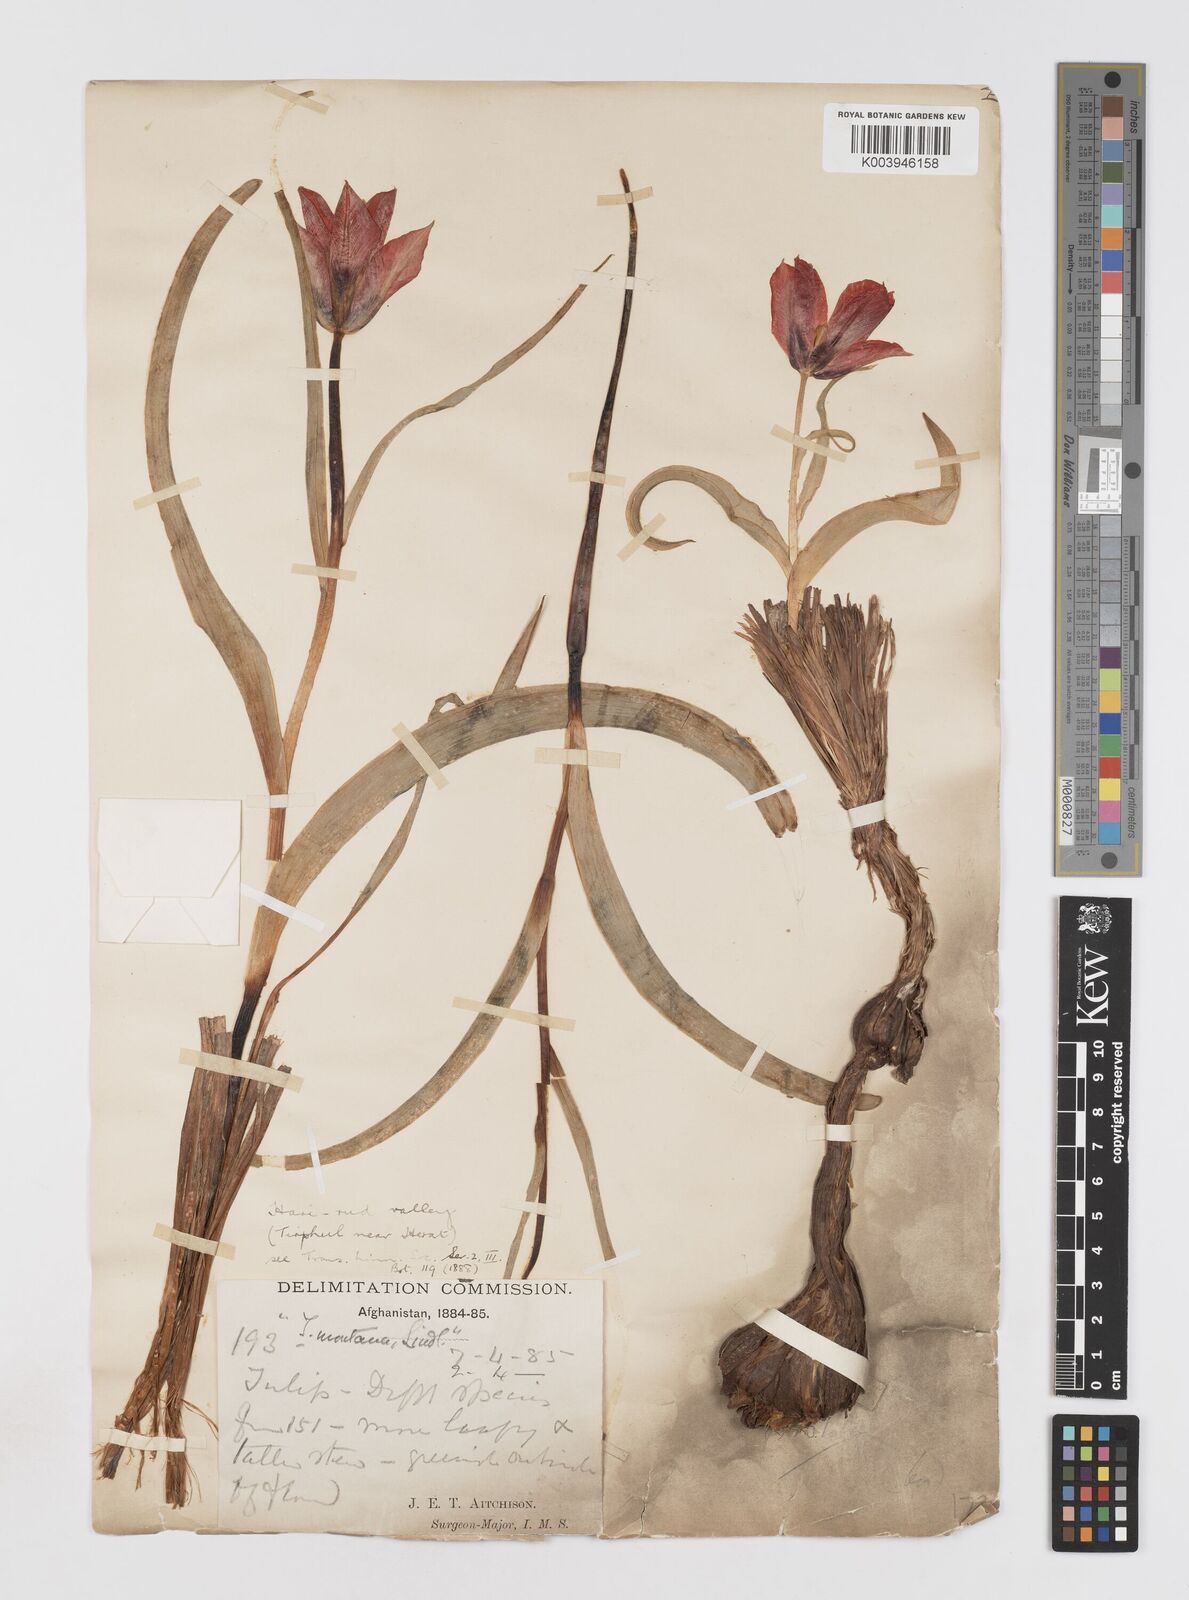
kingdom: Plantae
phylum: Tracheophyta
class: Liliopsida
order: Liliales
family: Liliaceae
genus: Tulipa
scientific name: Tulipa borszczowii
